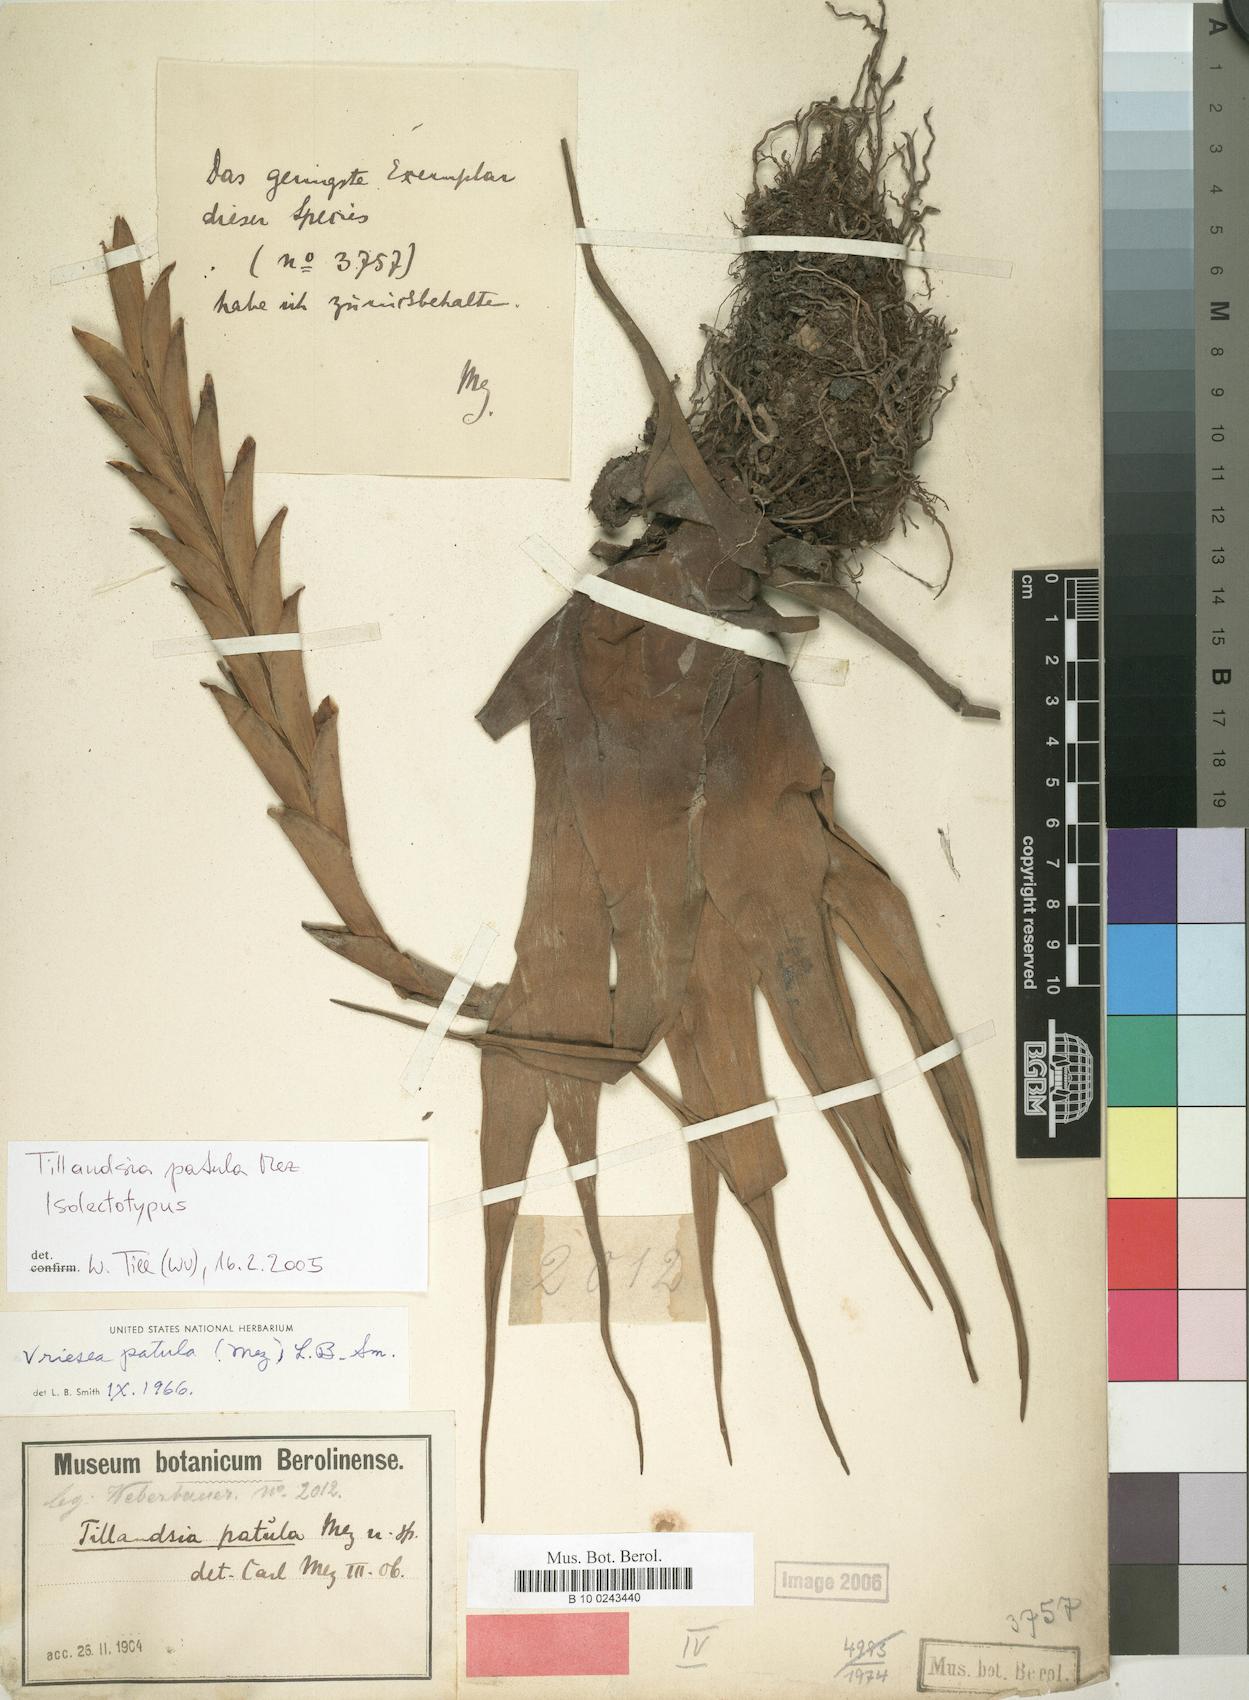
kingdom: Plantae
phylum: Tracheophyta
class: Liliopsida
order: Poales
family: Bromeliaceae
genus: Vriesea
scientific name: Vriesea patula
